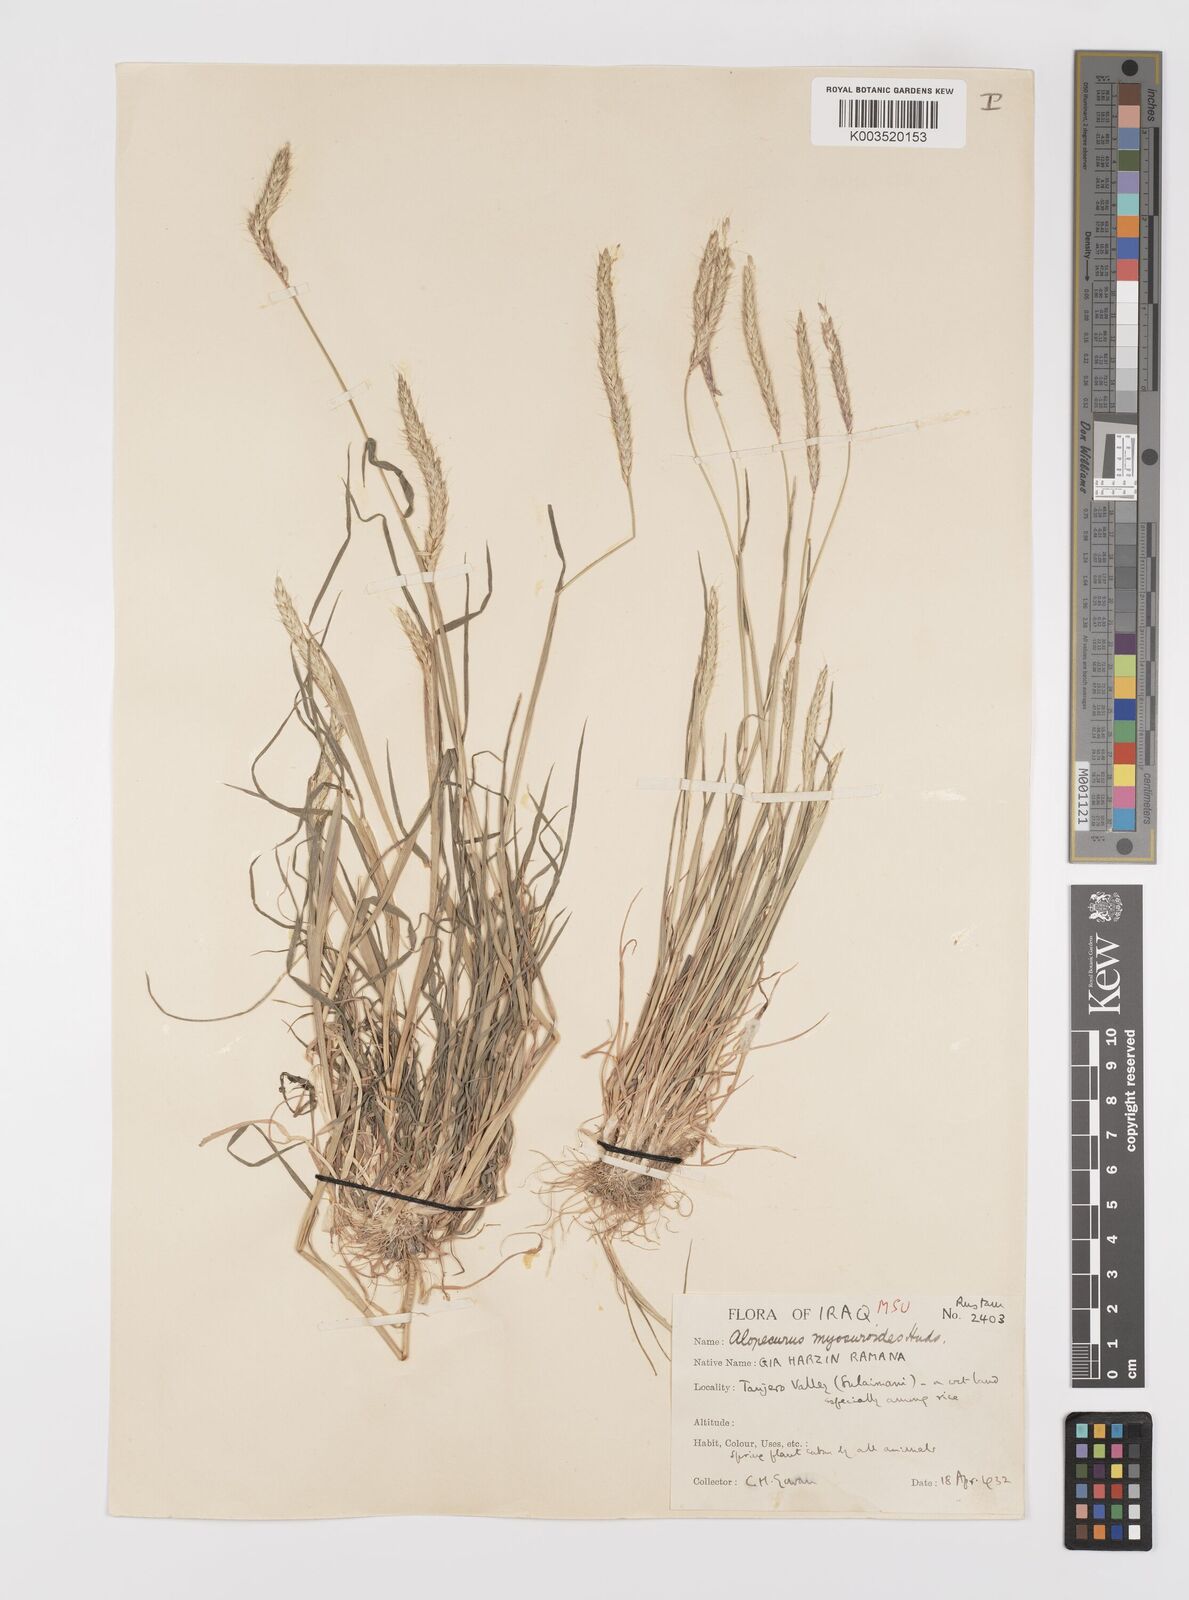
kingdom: Plantae
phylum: Tracheophyta
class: Liliopsida
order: Poales
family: Poaceae
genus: Alopecurus
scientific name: Alopecurus myosuroides
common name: Black-grass
